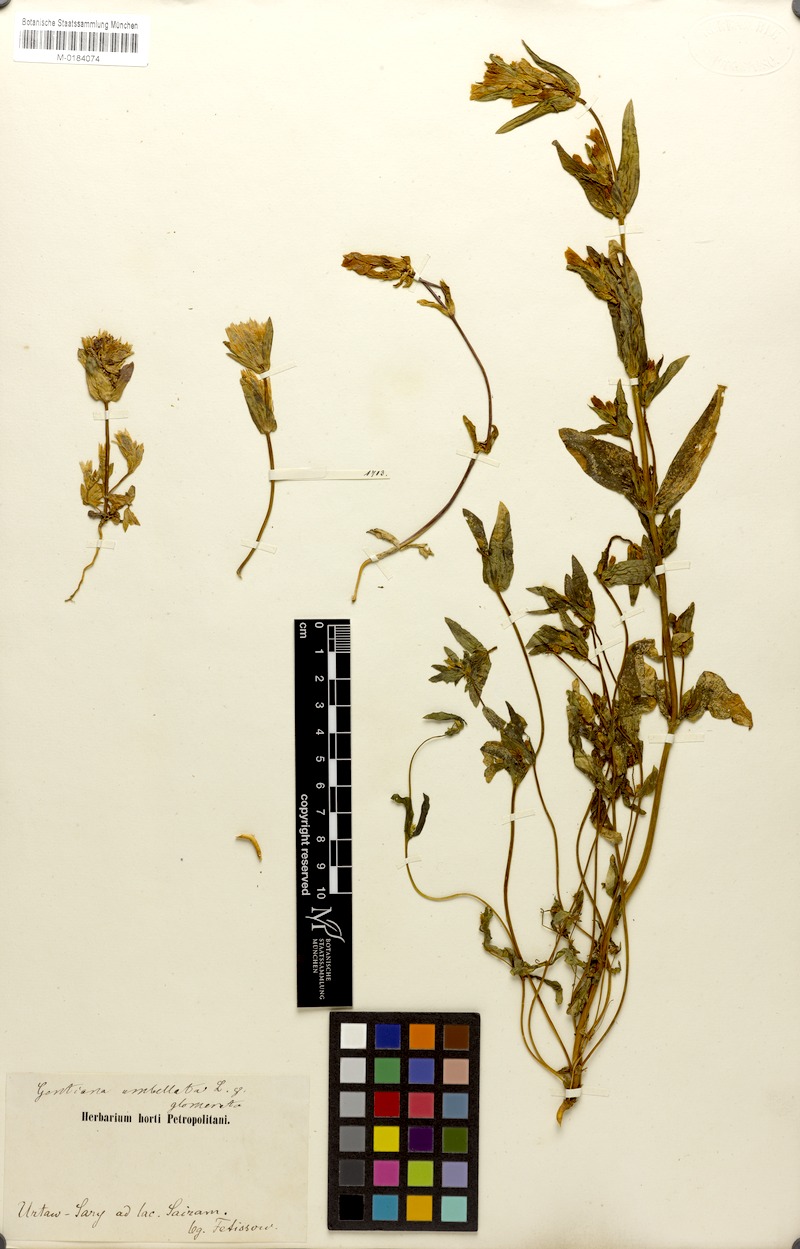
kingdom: Plantae
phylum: Tracheophyta
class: Magnoliopsida
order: Gentianales
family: Gentianaceae
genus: Gentianella
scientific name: Gentianella turkestanorum
